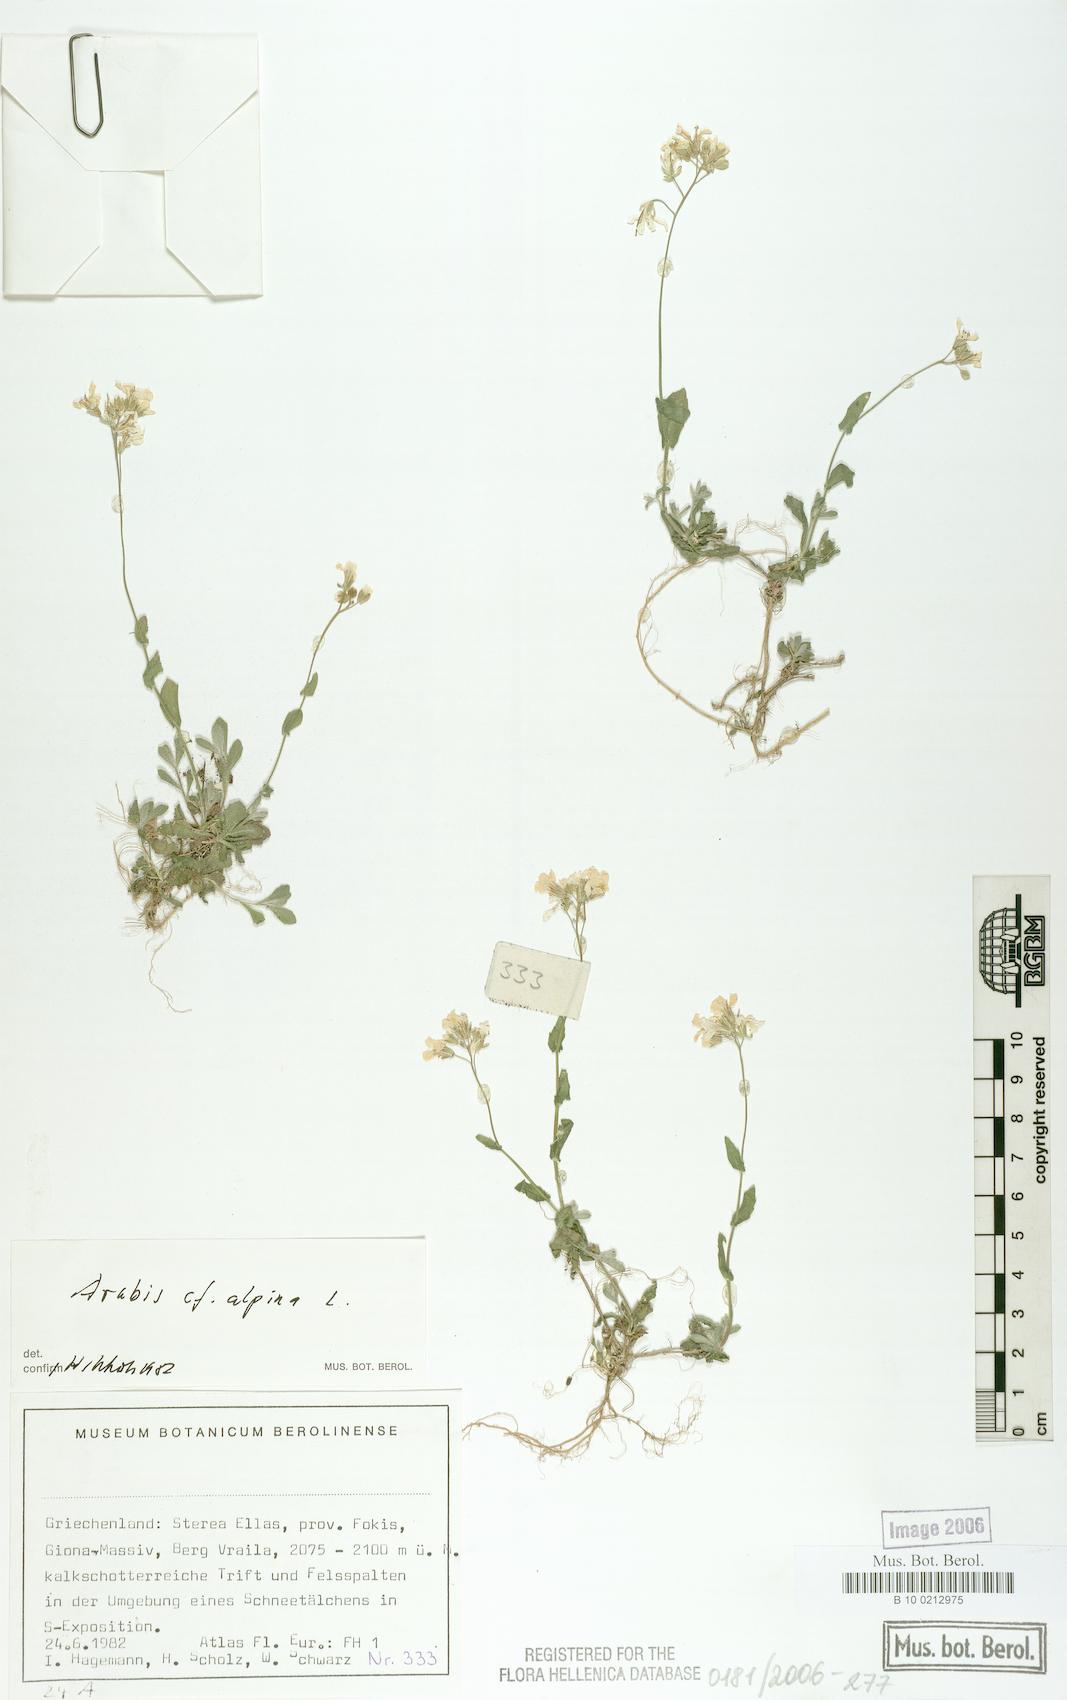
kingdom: Plantae
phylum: Tracheophyta
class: Magnoliopsida
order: Brassicales
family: Brassicaceae
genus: Arabis
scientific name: Arabis alpina
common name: Alpine rock-cress
